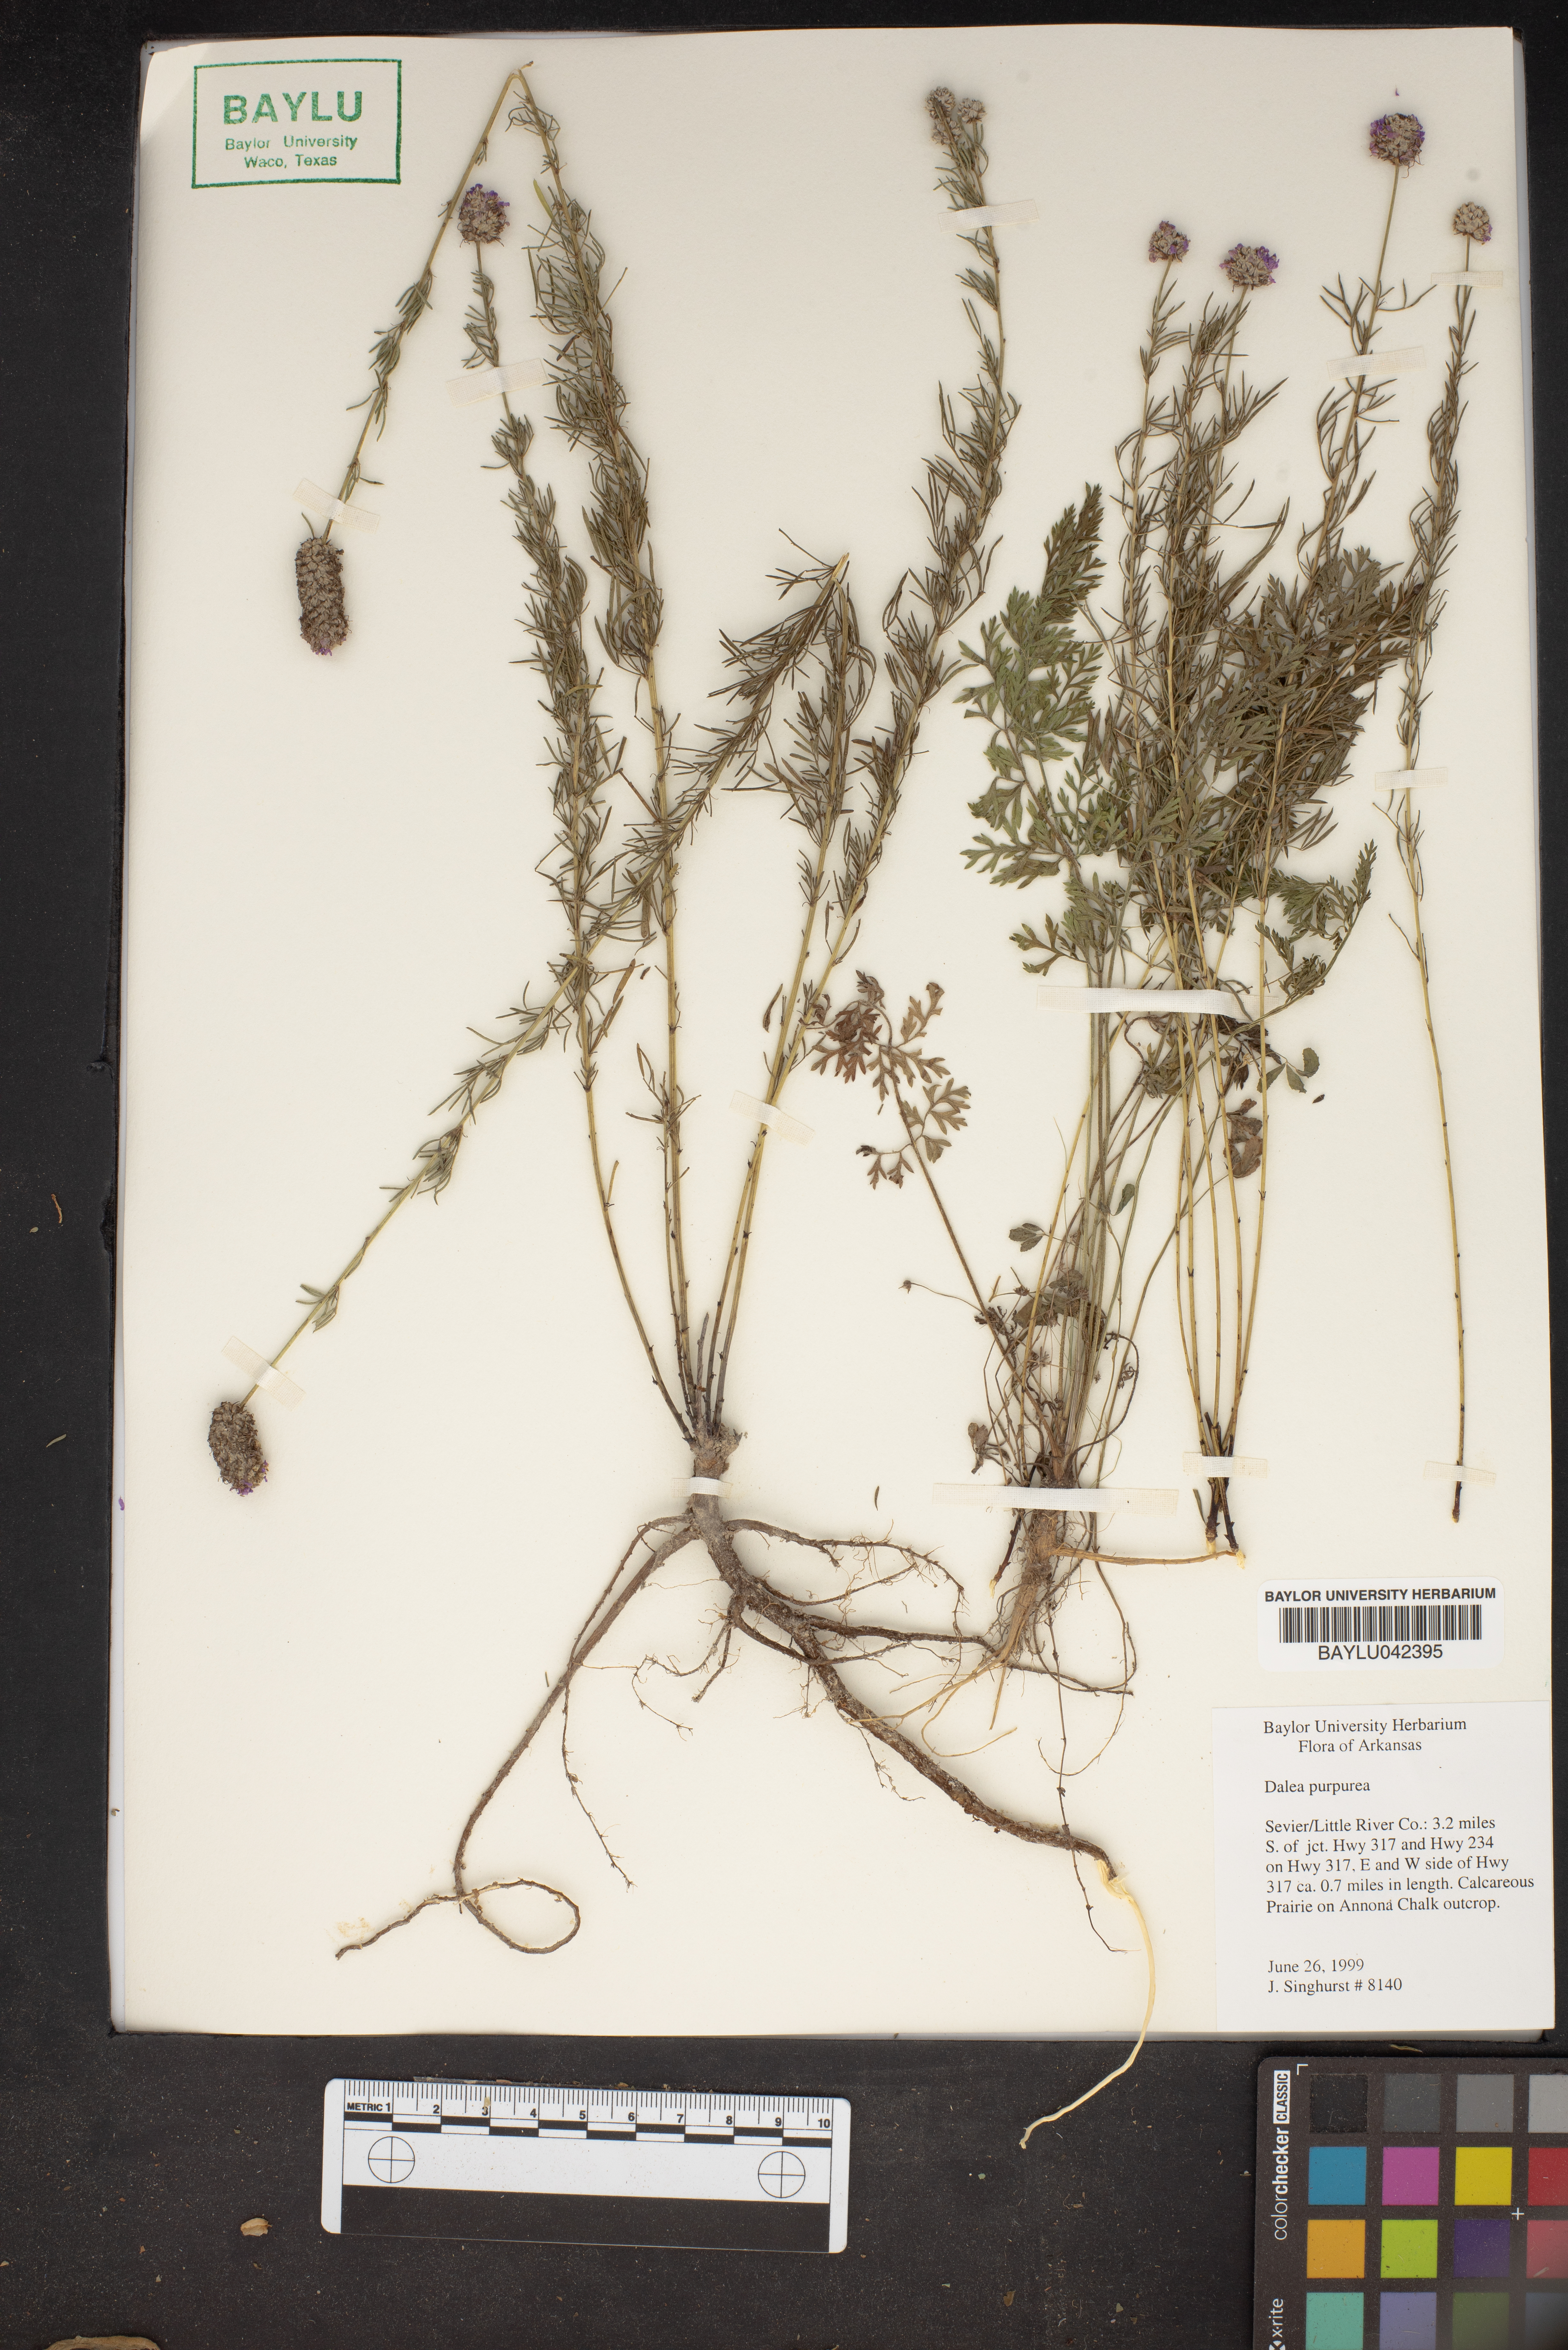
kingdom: Plantae
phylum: Tracheophyta
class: Magnoliopsida
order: Fabales
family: Fabaceae
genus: Dalea
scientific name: Dalea purpurea
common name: Purple prairie-clover
